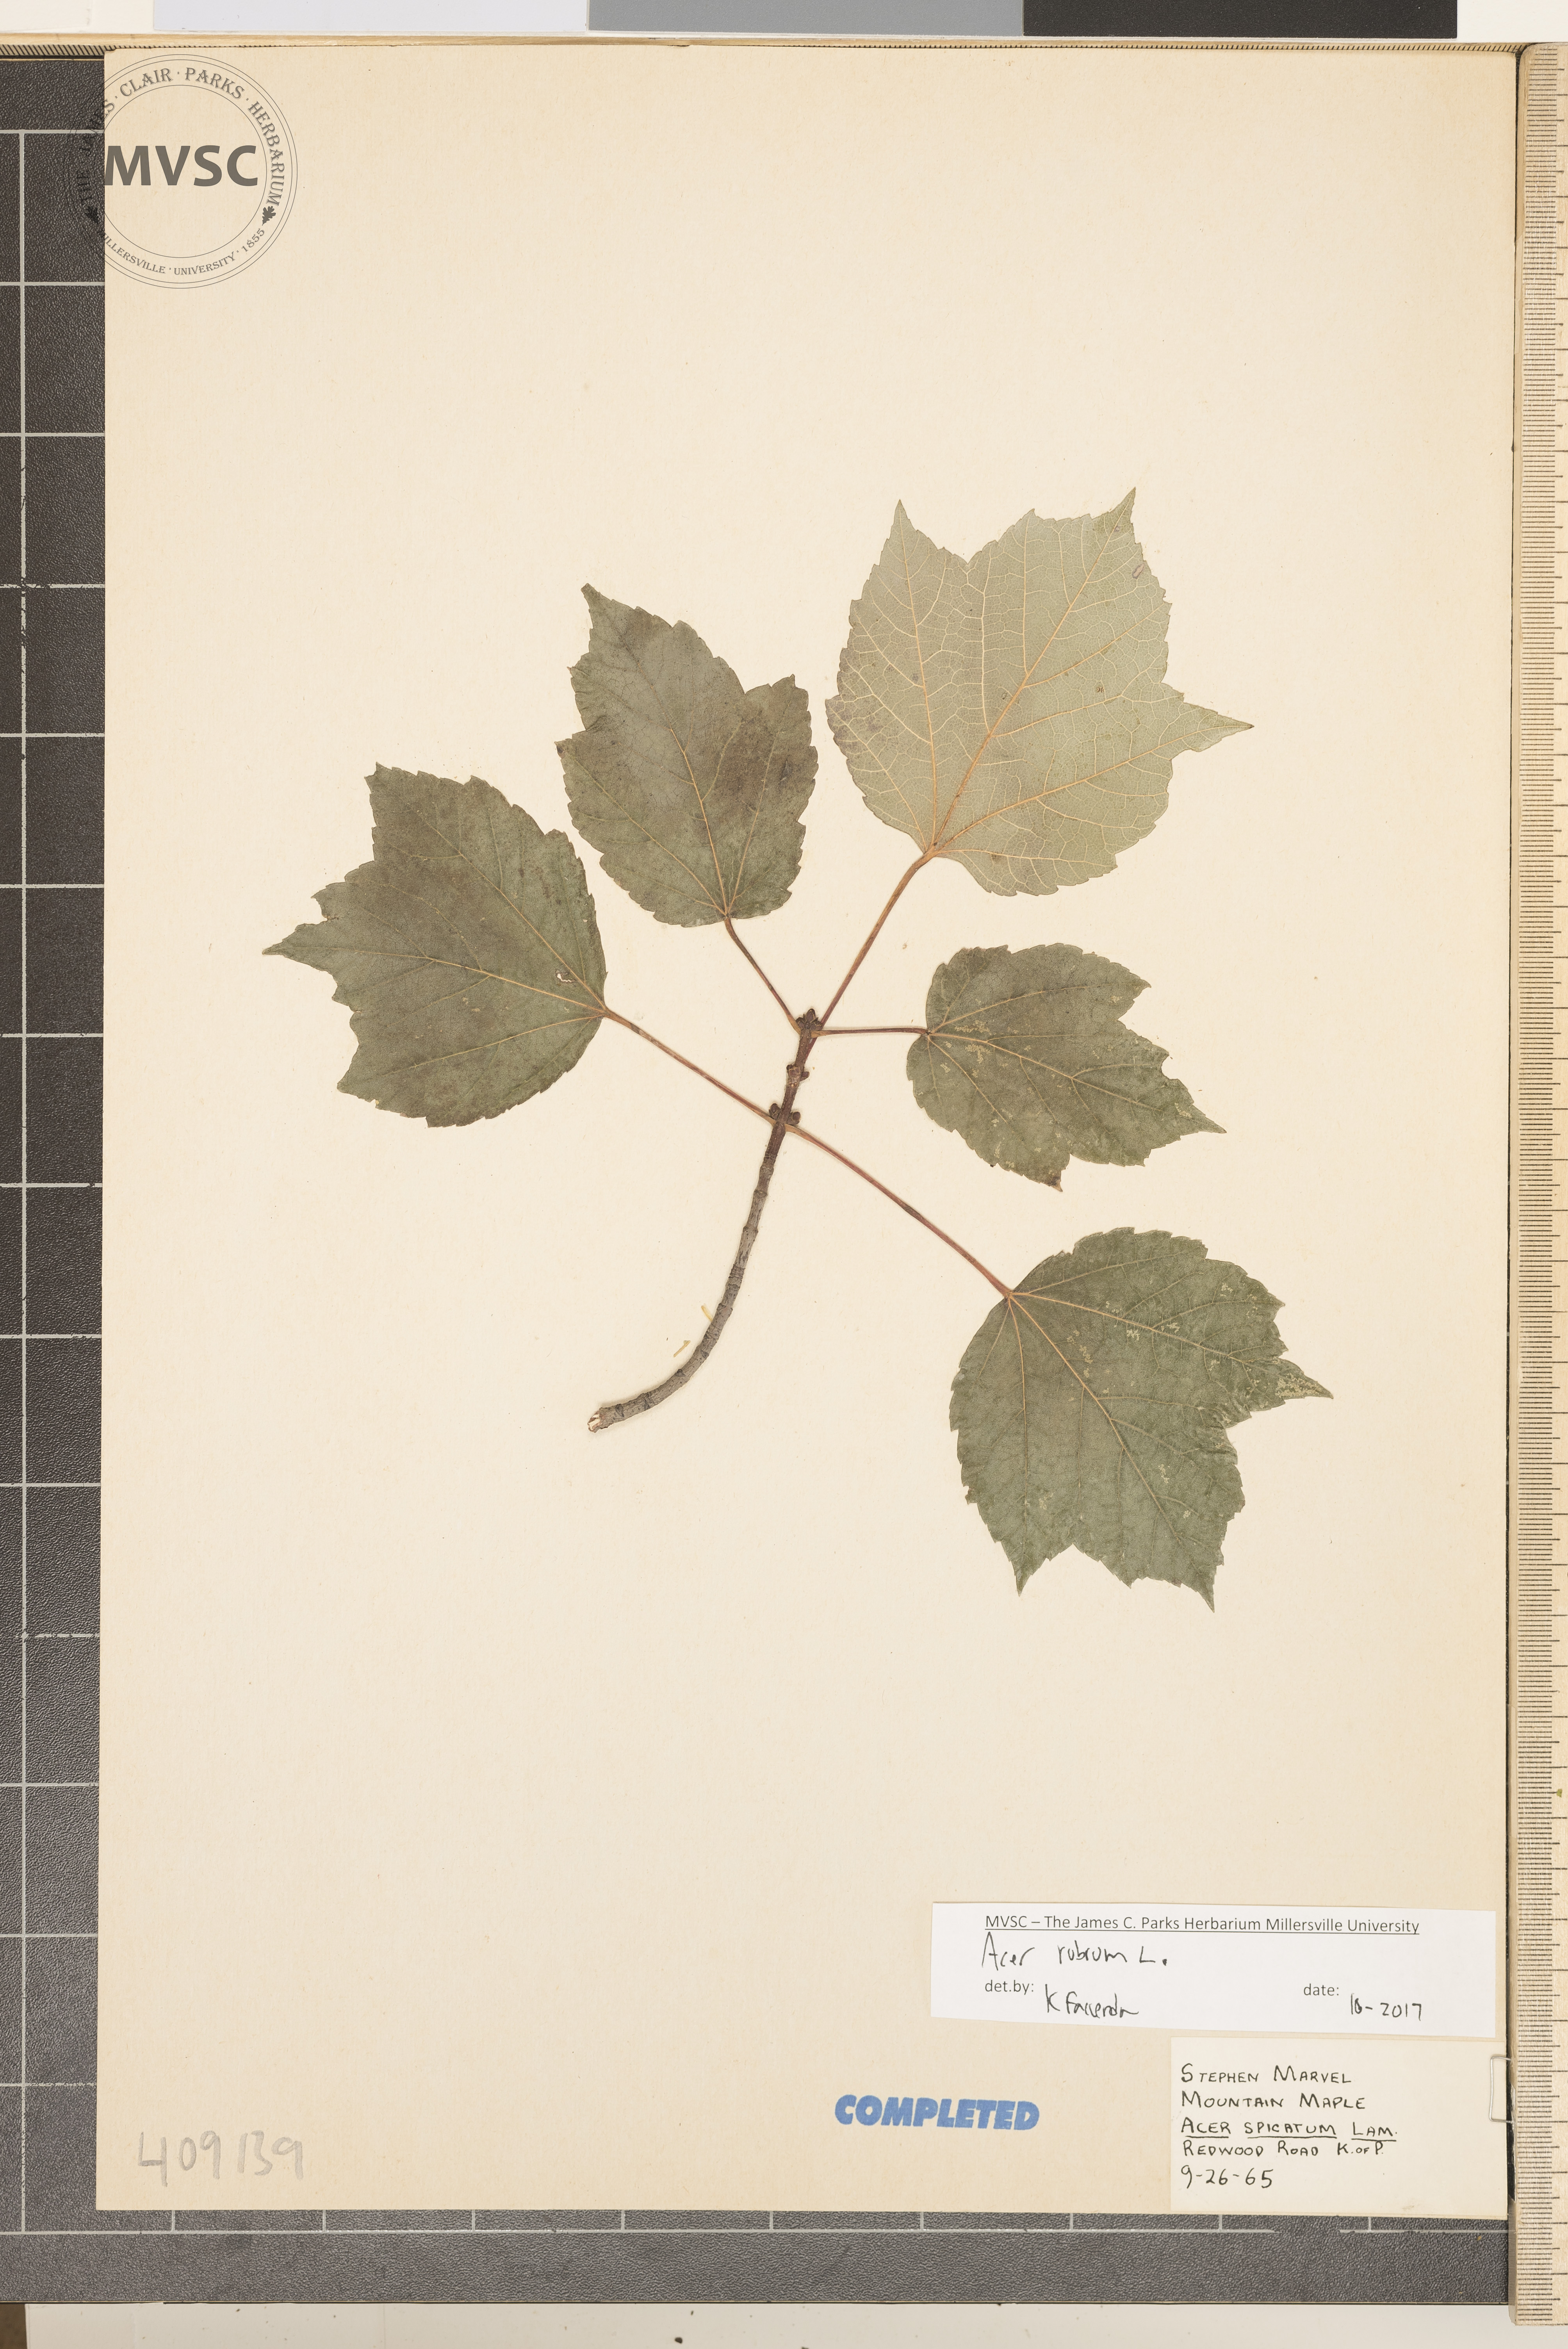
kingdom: Plantae
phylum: Tracheophyta
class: Magnoliopsida
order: Sapindales
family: Sapindaceae
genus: Acer
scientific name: Acer rubrum
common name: Red maple
